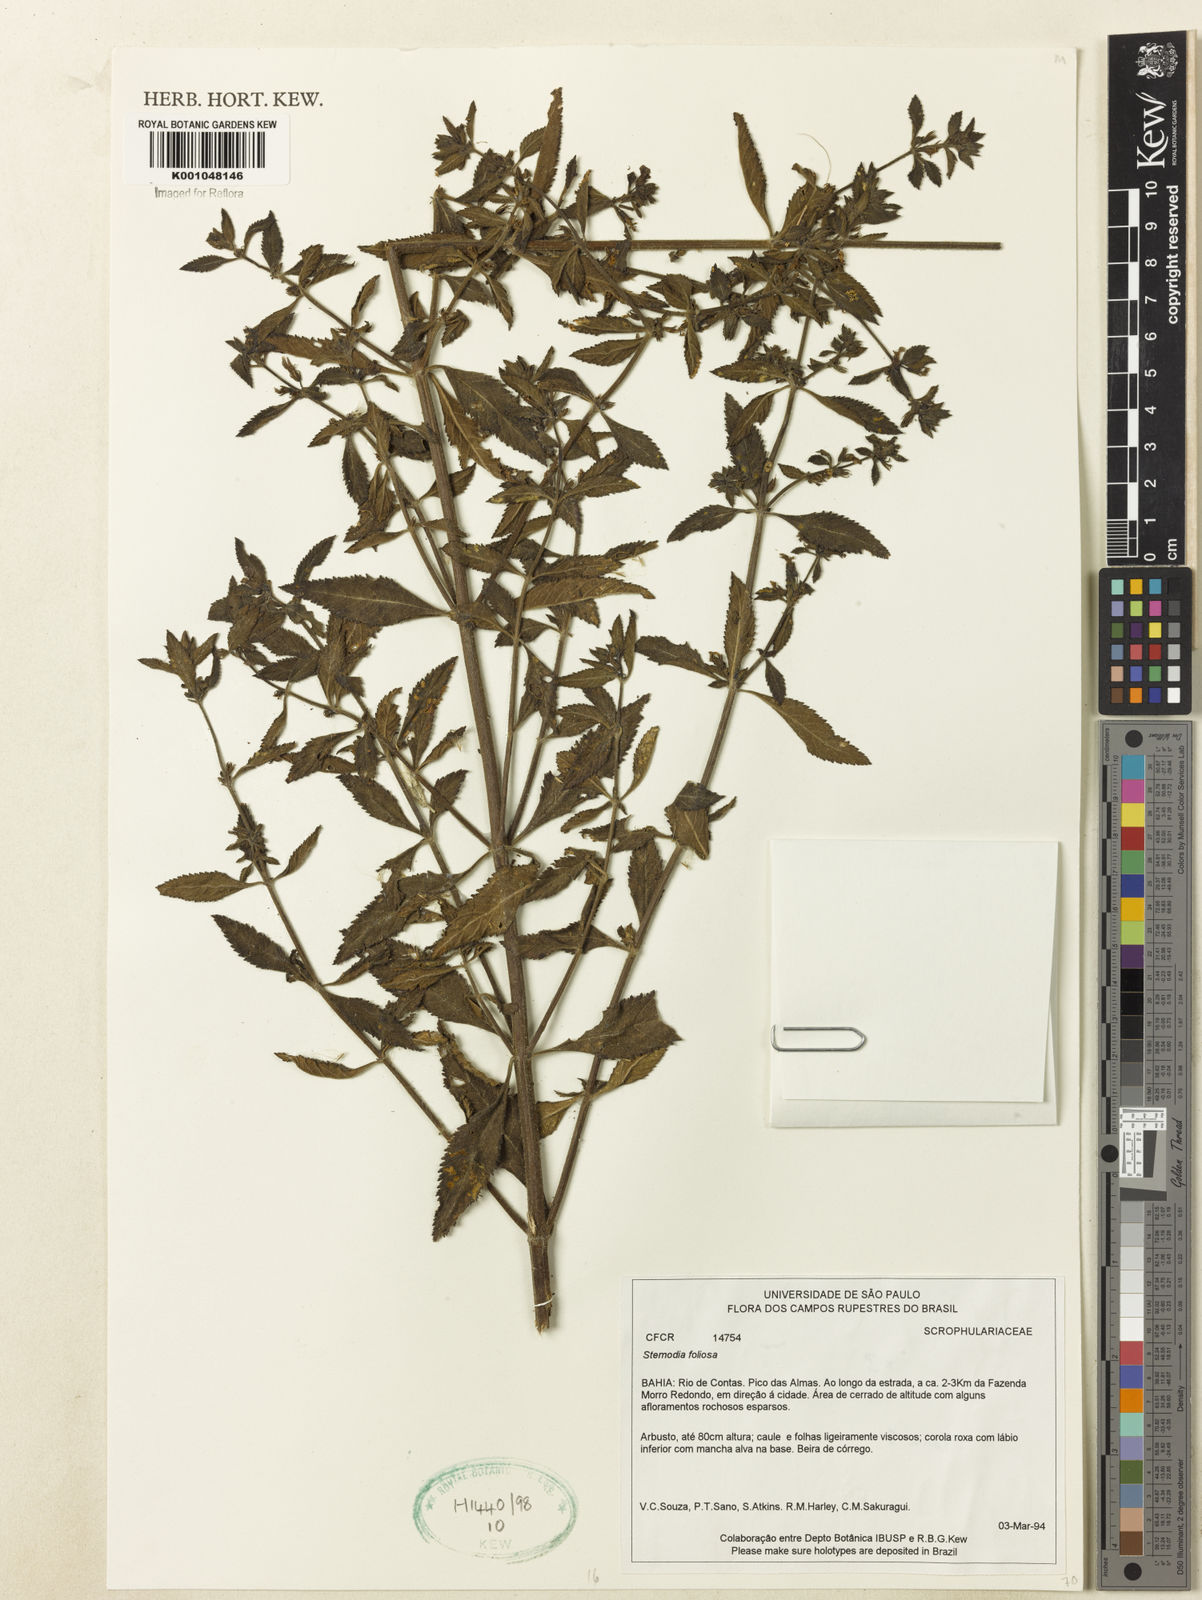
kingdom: Plantae
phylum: Tracheophyta
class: Magnoliopsida
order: Lamiales
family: Plantaginaceae
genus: Stemodia
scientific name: Stemodia foliosa
